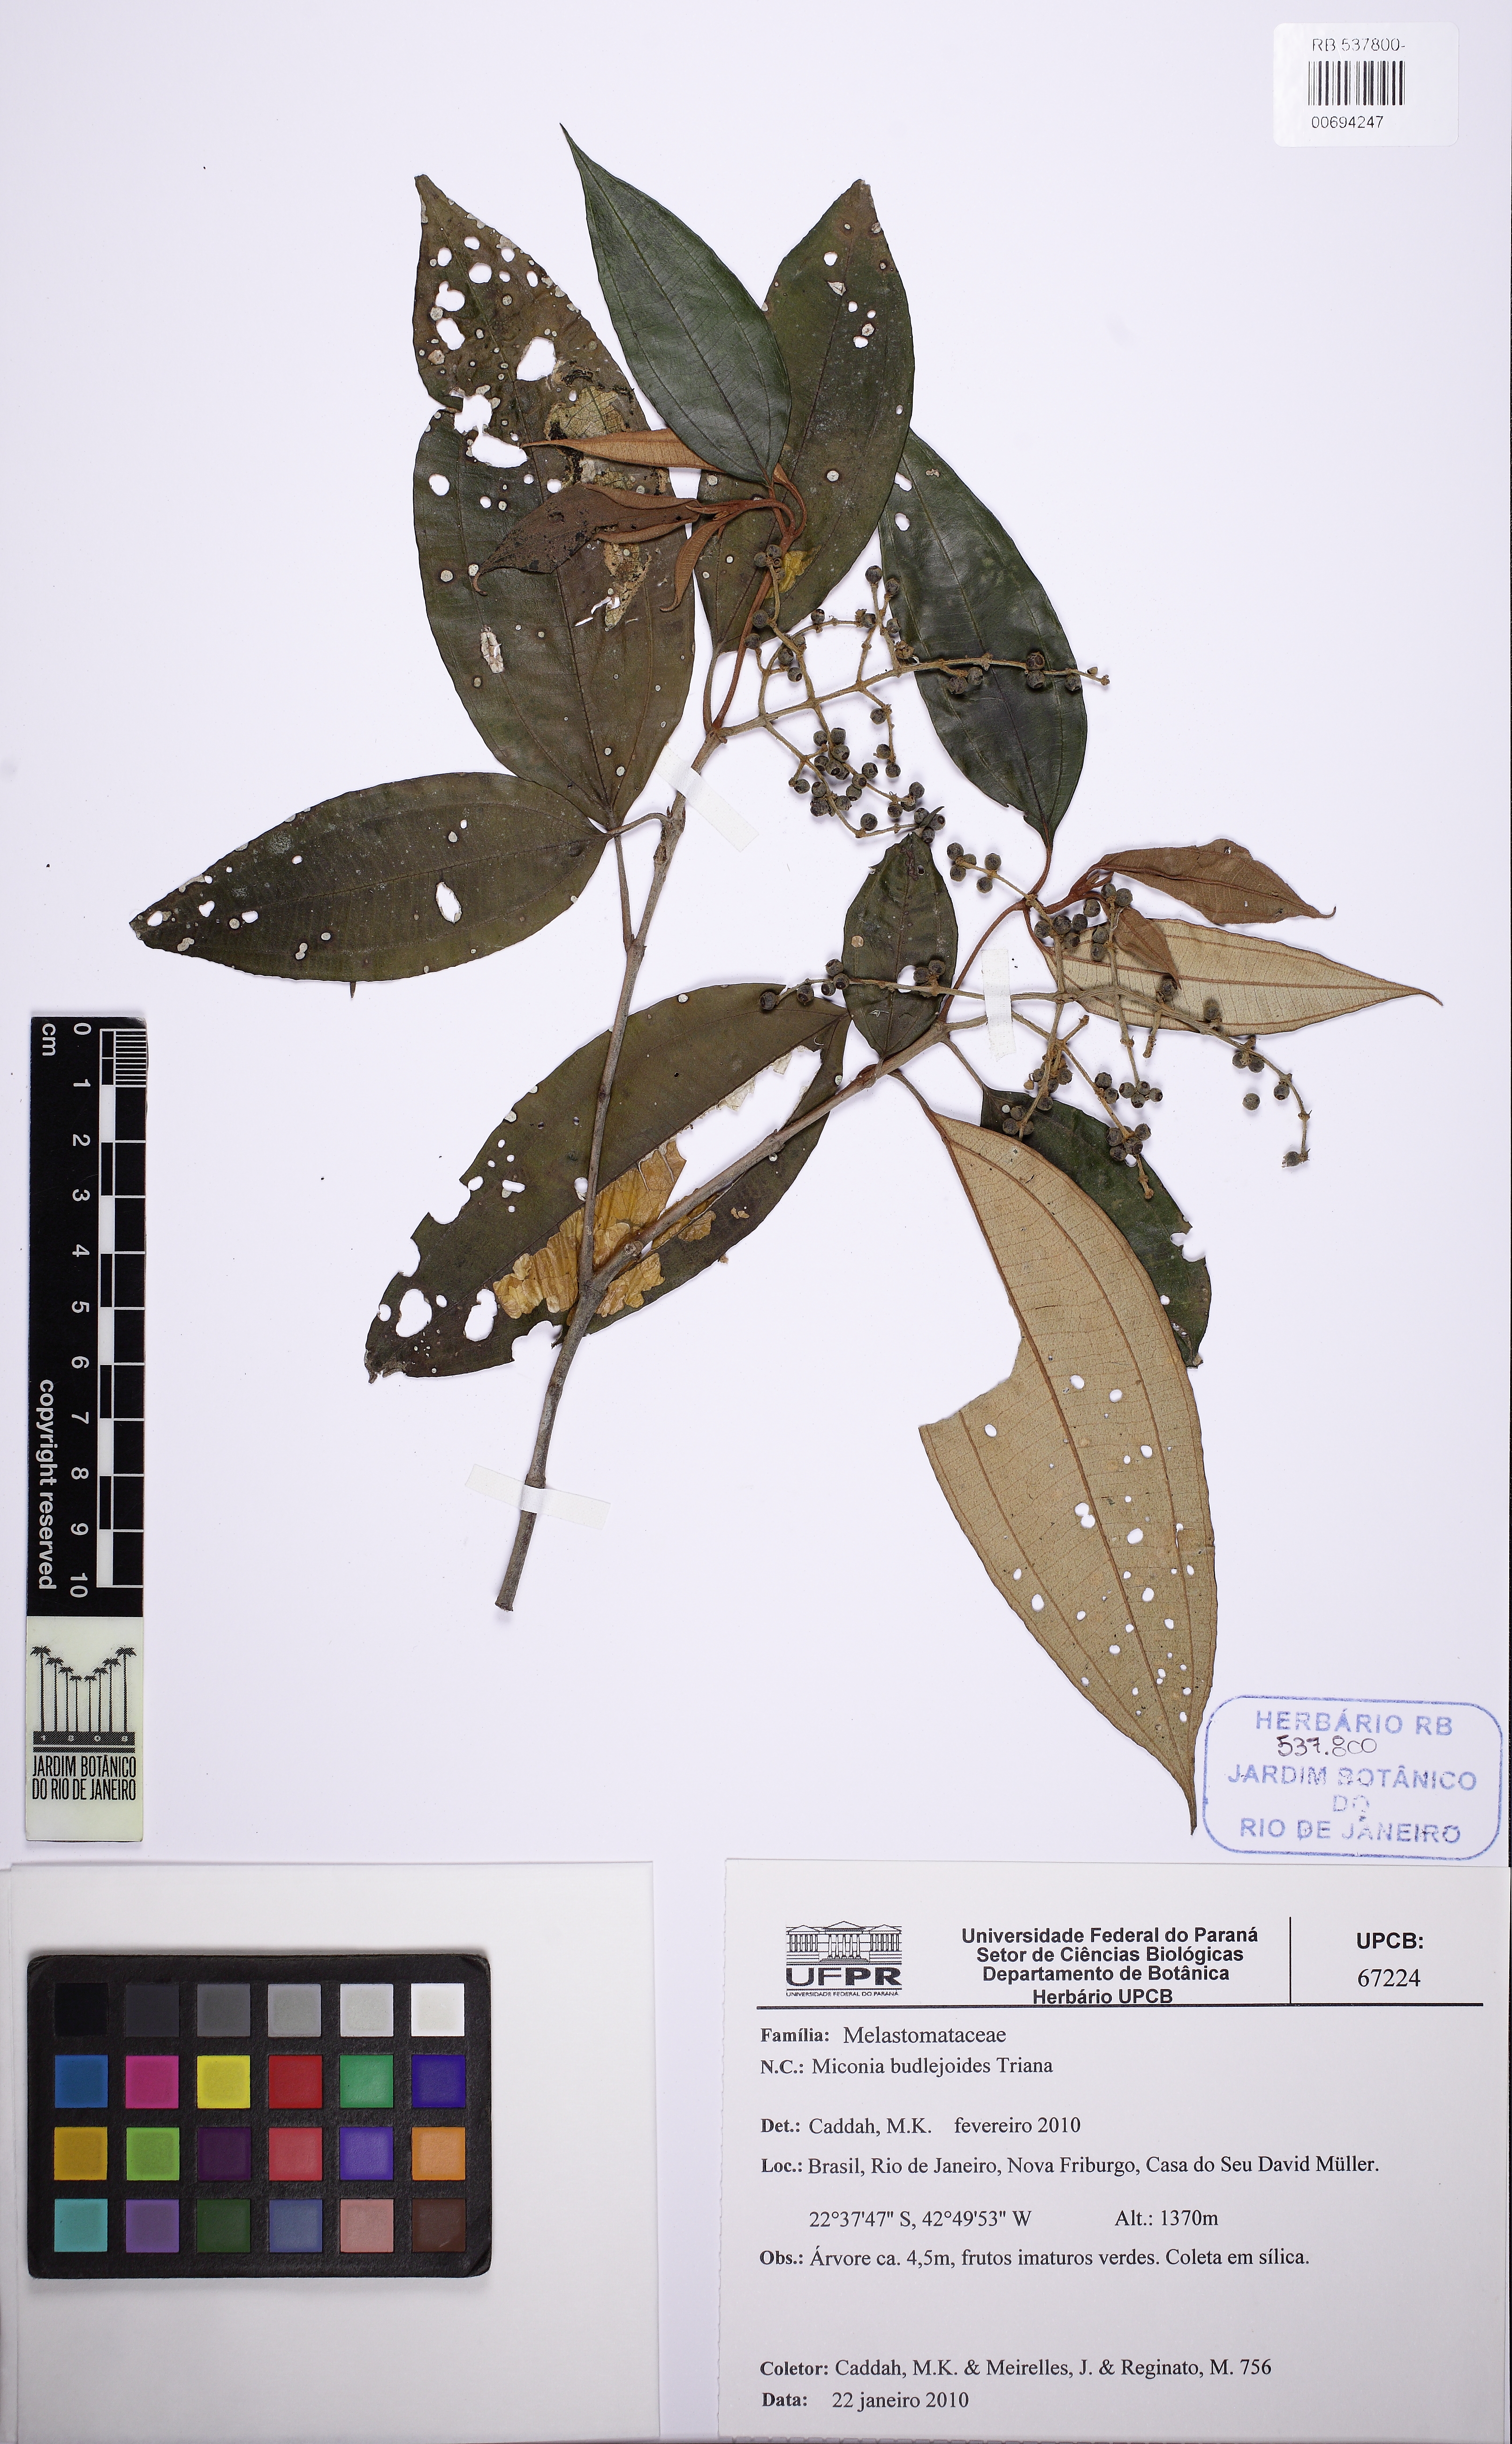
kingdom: Plantae
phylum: Tracheophyta
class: Magnoliopsida
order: Myrtales
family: Melastomataceae
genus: Miconia
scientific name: Miconia buddlejoides
